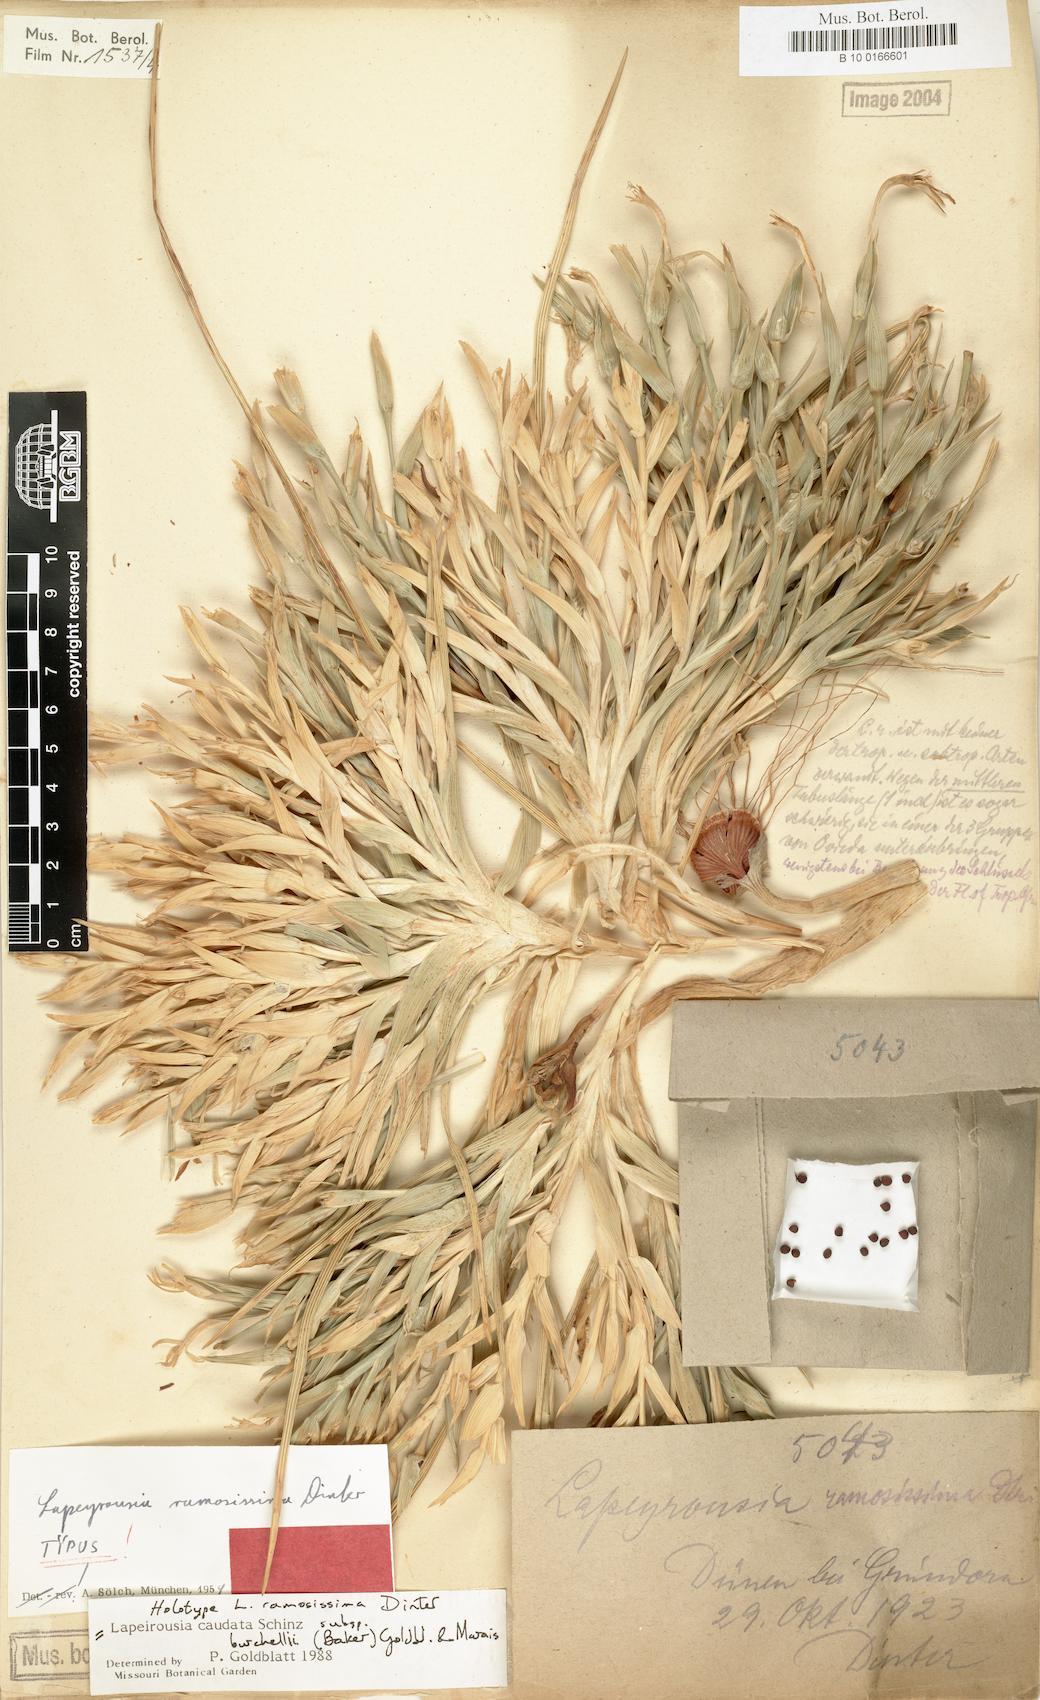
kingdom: Plantae
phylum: Tracheophyta
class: Liliopsida
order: Asparagales
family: Iridaceae
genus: Lapeirousia
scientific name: Lapeirousia littoralis
